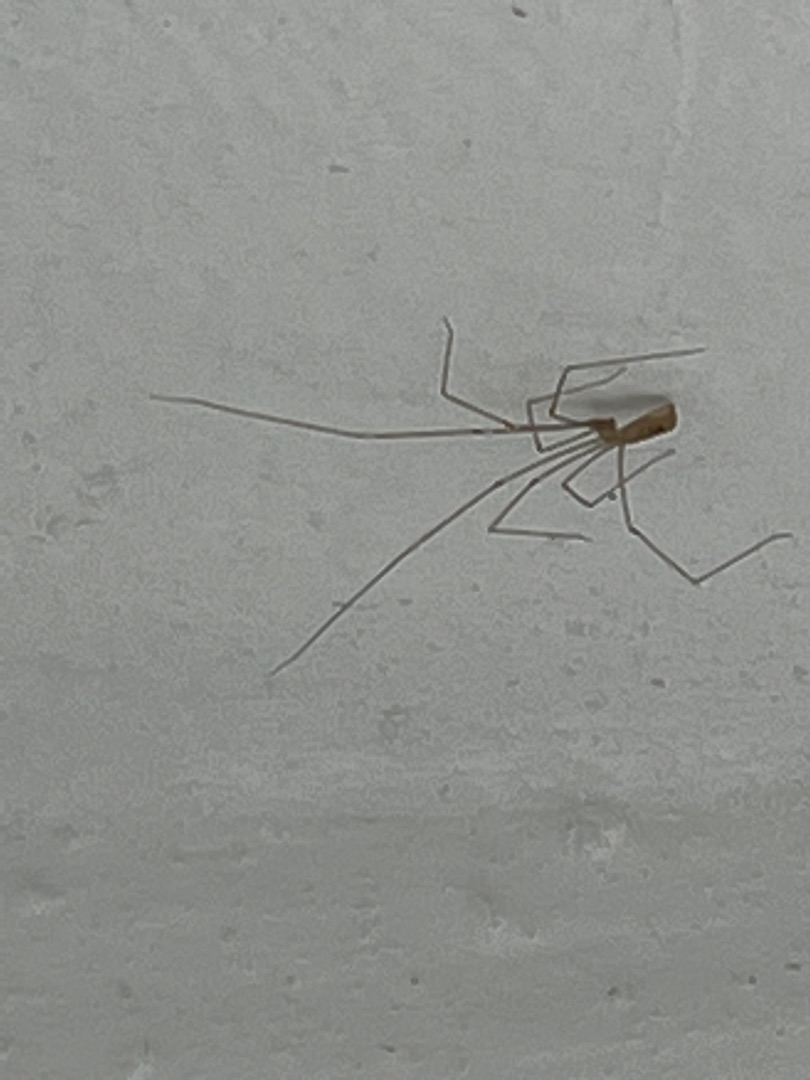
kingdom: Animalia
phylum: Arthropoda
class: Arachnida
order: Araneae
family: Pholcidae
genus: Pholcus
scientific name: Pholcus
